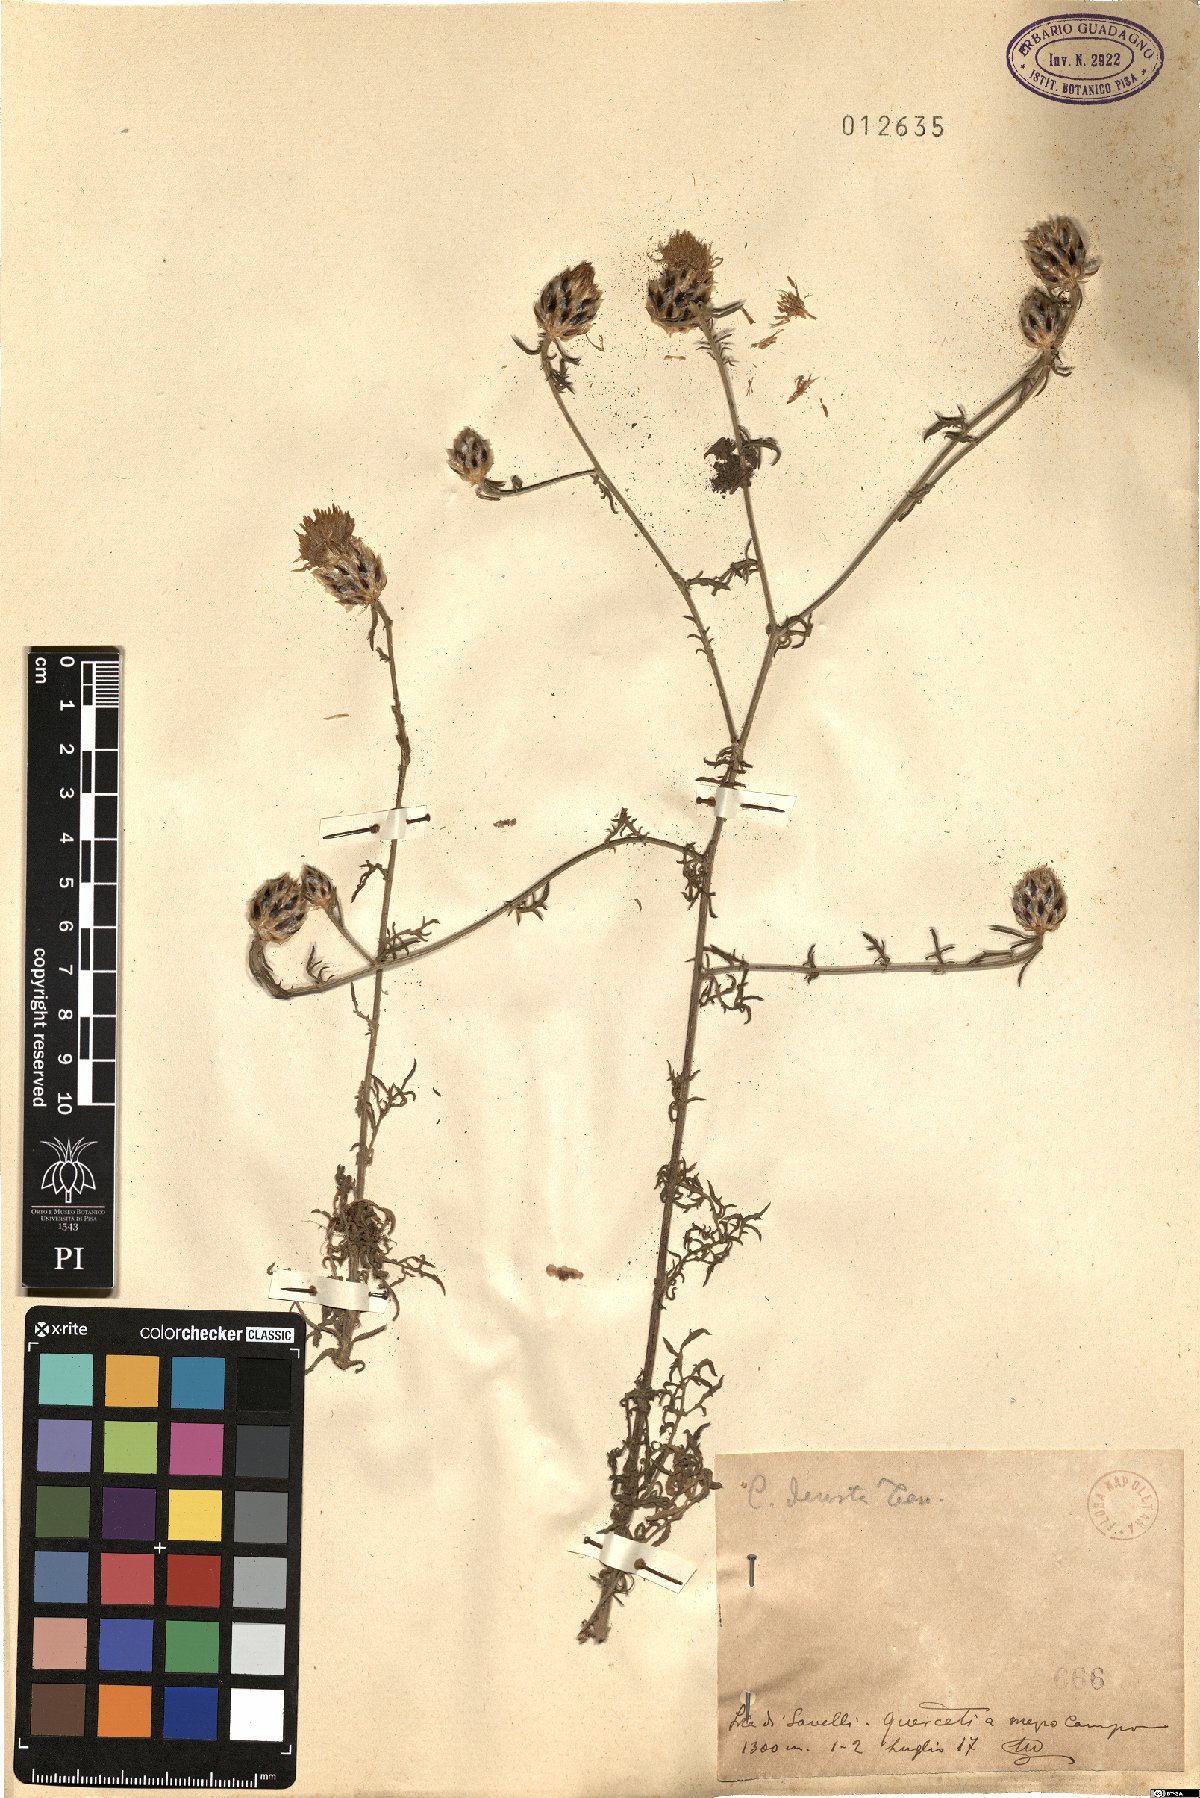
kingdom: Plantae
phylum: Tracheophyta
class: Magnoliopsida
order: Asterales
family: Asteraceae
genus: Centaurea
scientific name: Centaurea deusta
